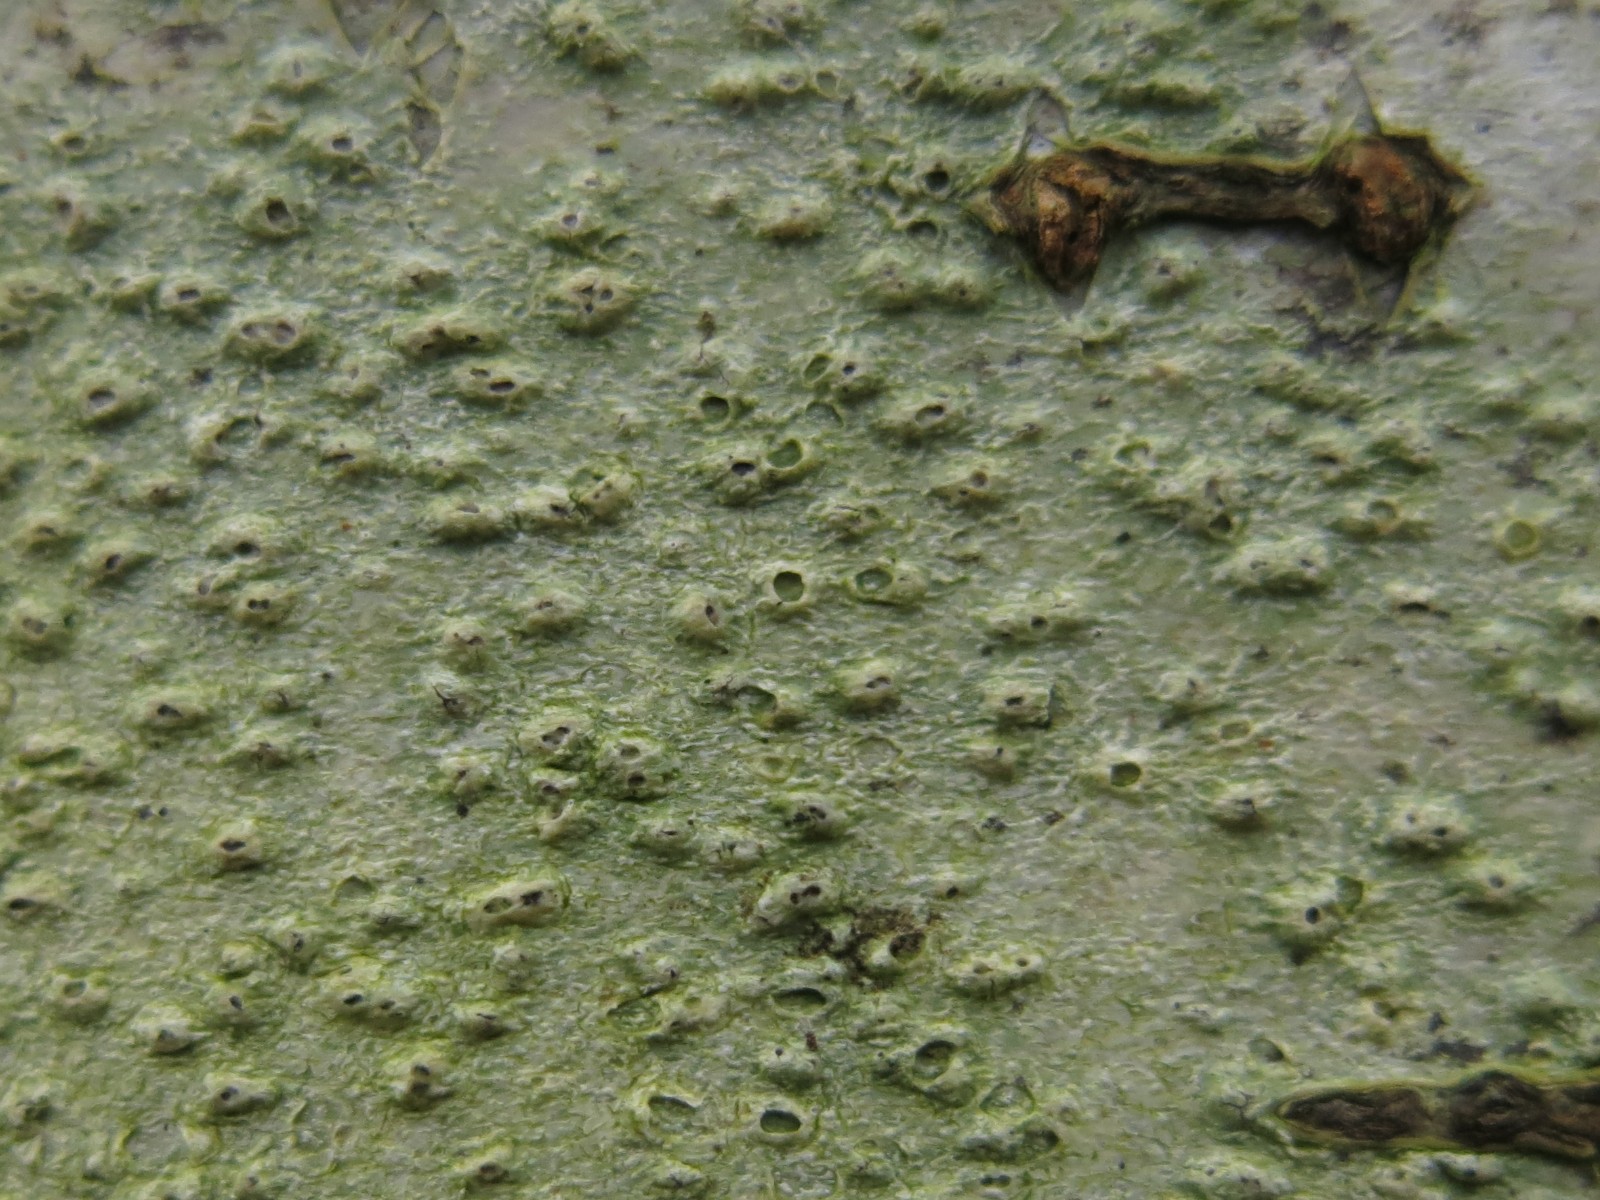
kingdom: Fungi
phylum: Ascomycota
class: Lecanoromycetes
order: Pertusariales
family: Pertusariaceae
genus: Pertusaria
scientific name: Pertusaria leioplaca
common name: tynd prikvortelav
